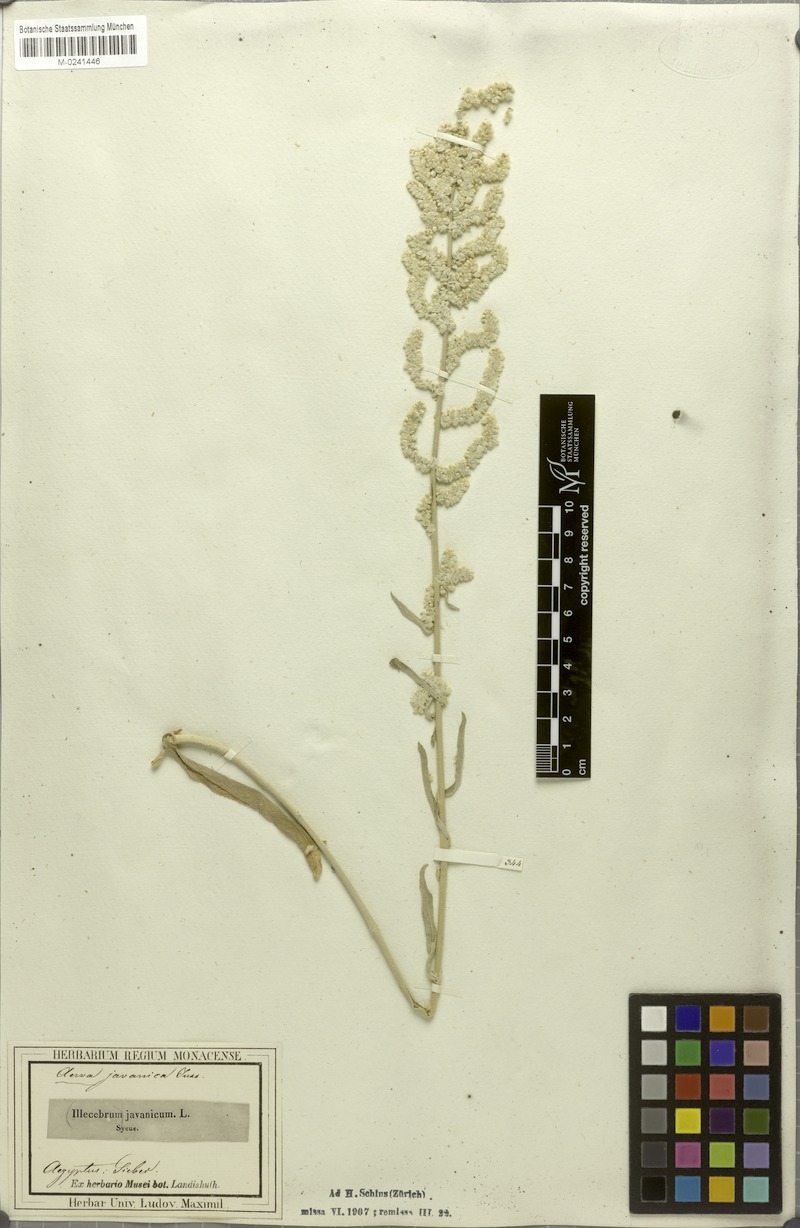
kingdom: Plantae
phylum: Tracheophyta
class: Magnoliopsida
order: Caryophyllales
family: Amaranthaceae
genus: Aerva
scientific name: Aerva javanica
